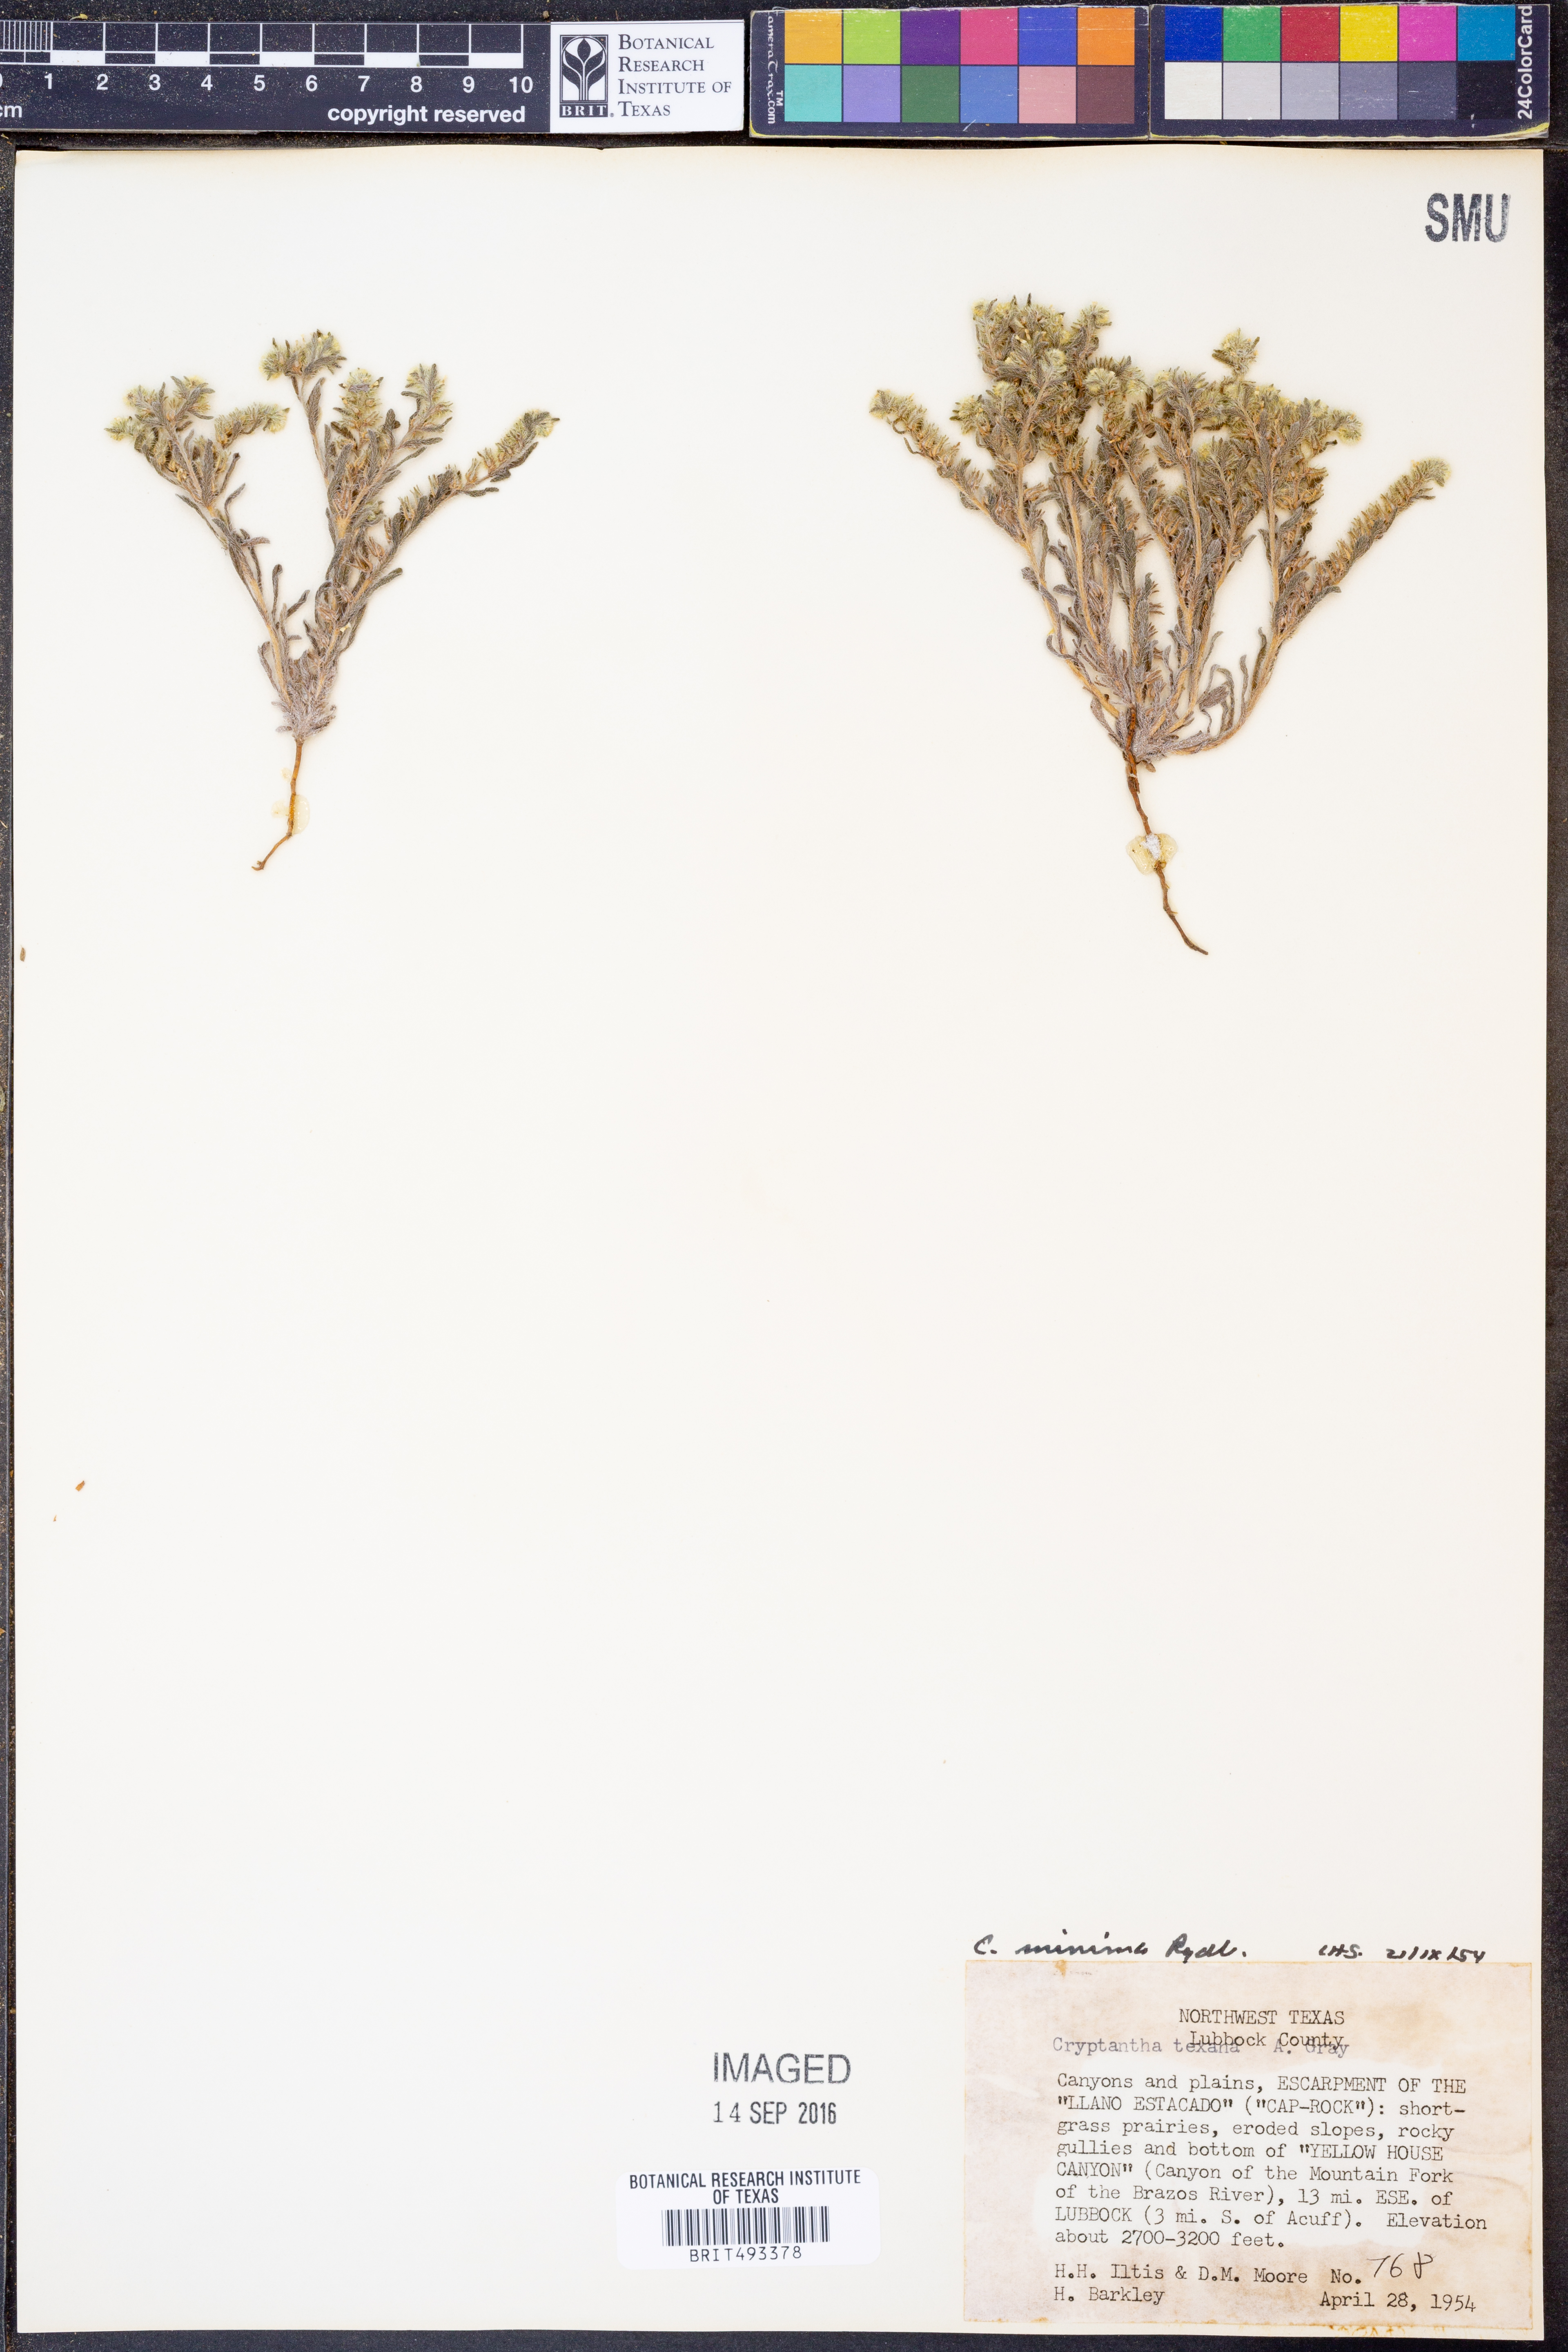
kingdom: Plantae
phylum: Tracheophyta
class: Magnoliopsida
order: Boraginales
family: Boraginaceae
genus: Cryptantha
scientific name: Cryptantha minima
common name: Little cat's-eye
